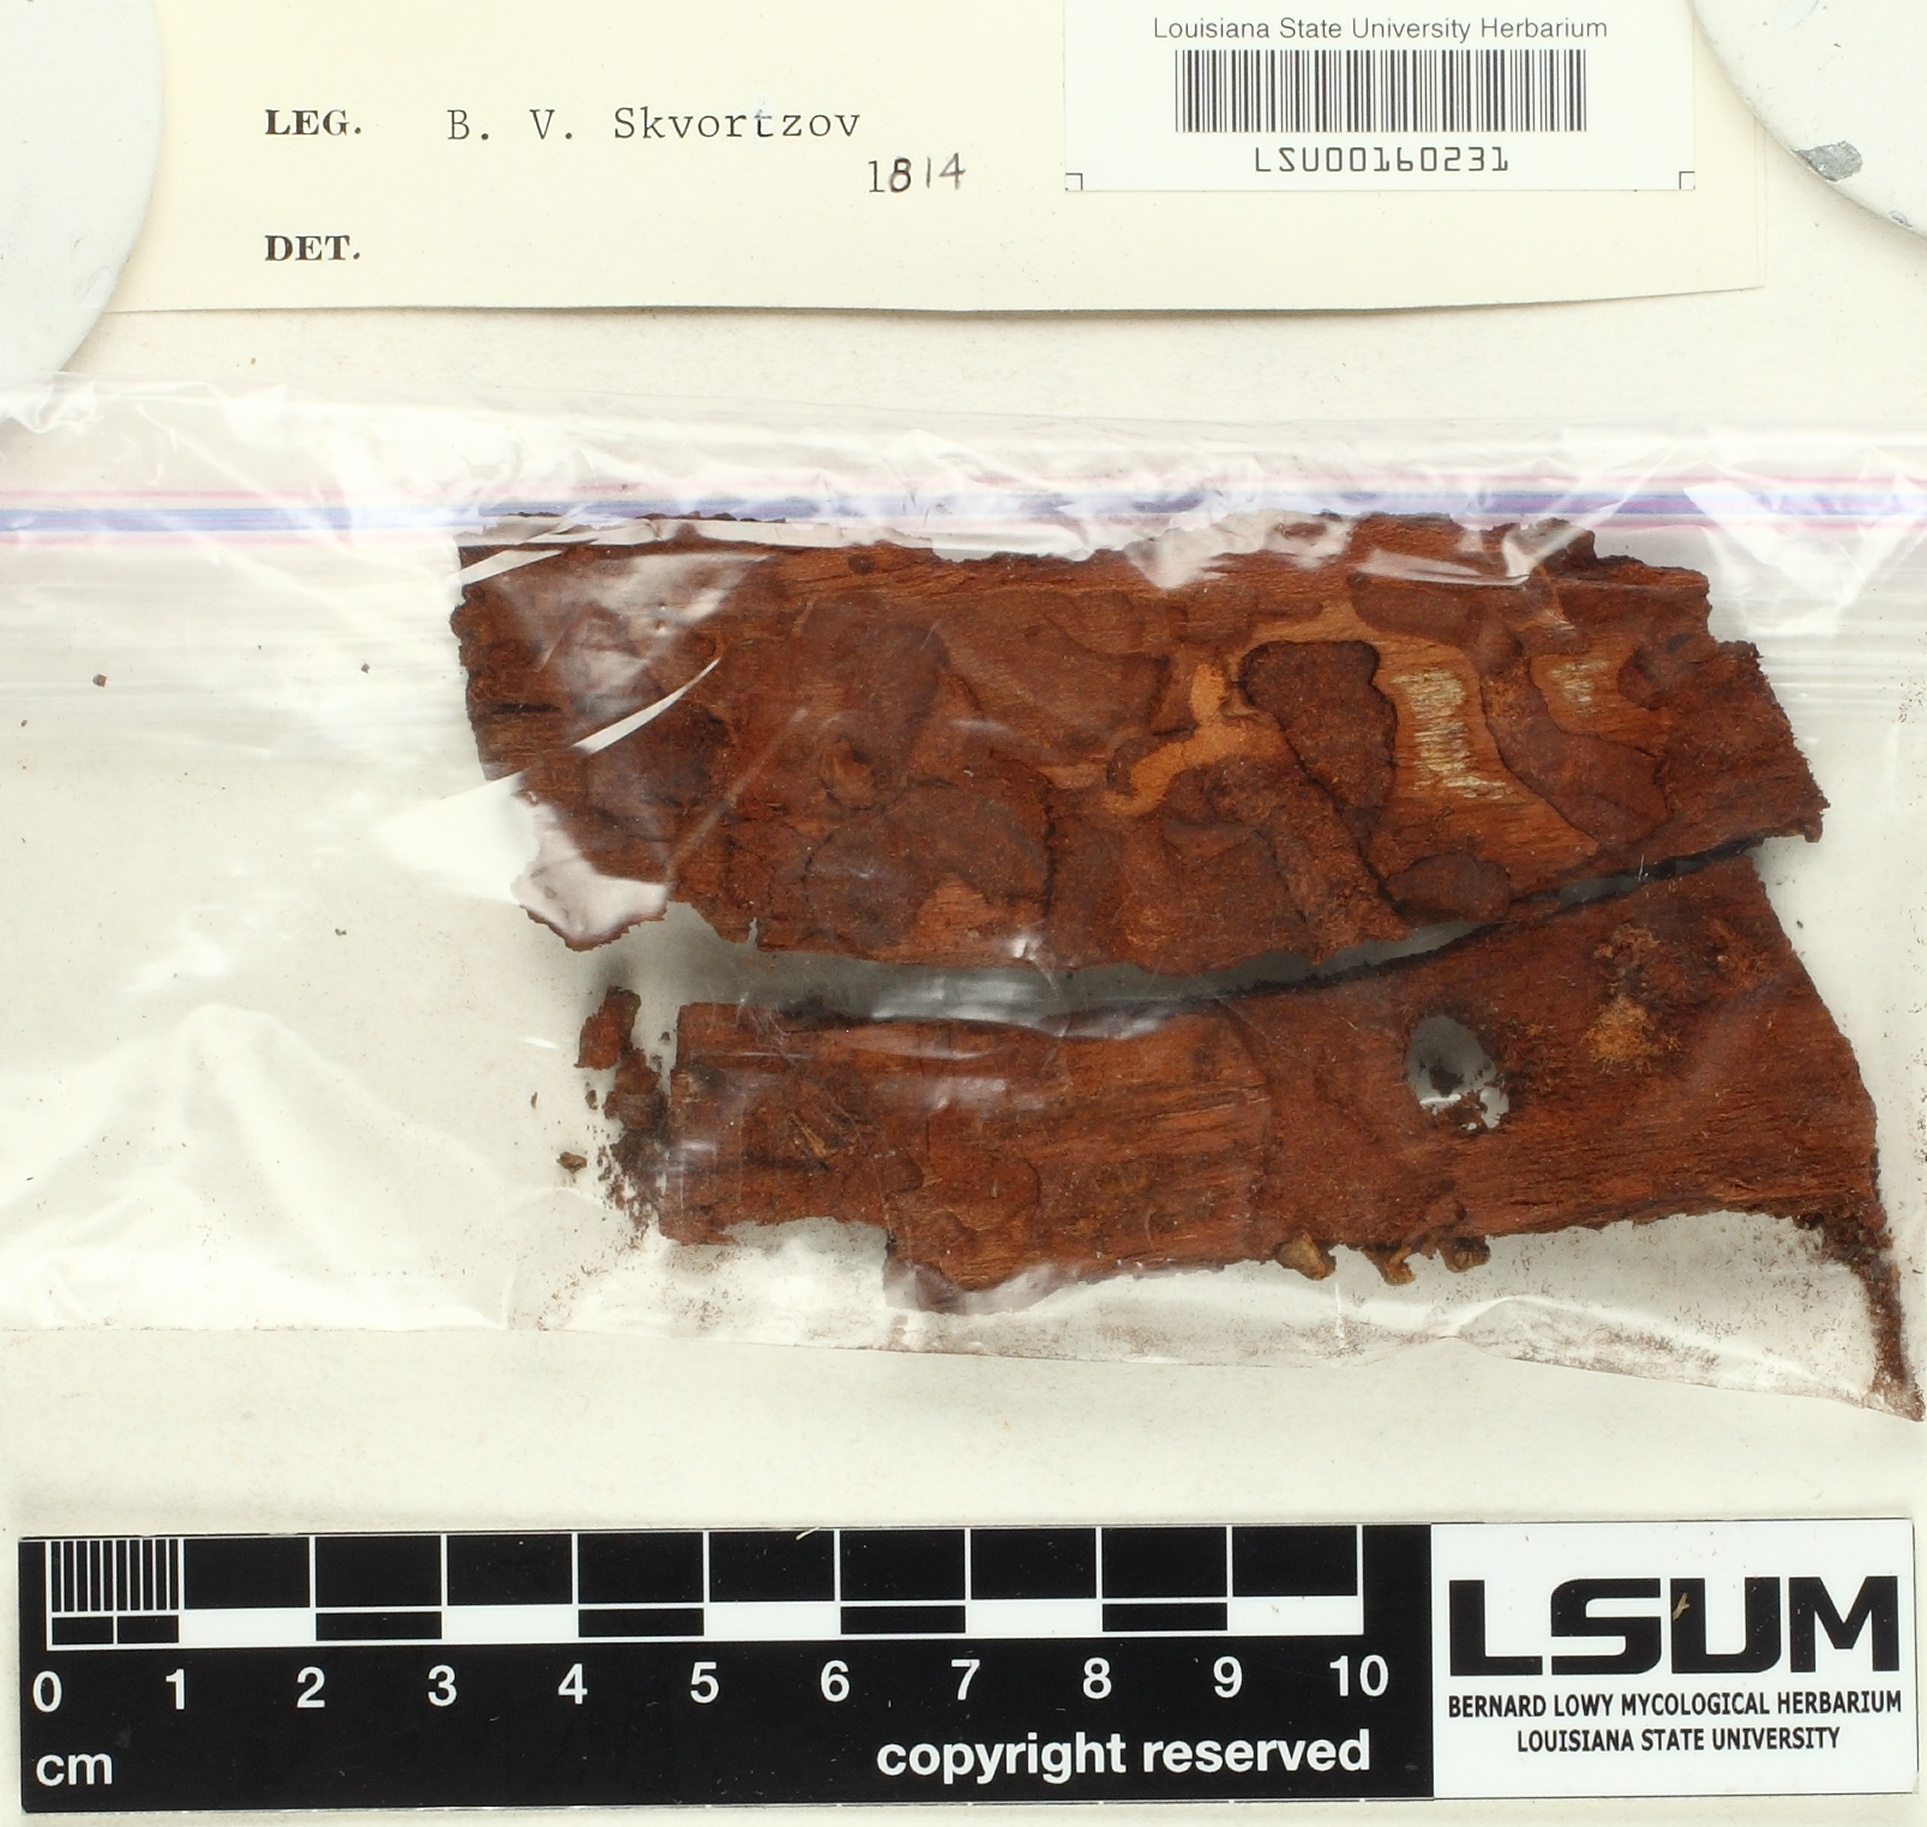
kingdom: Fungi
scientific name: Fungi
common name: Fungi
